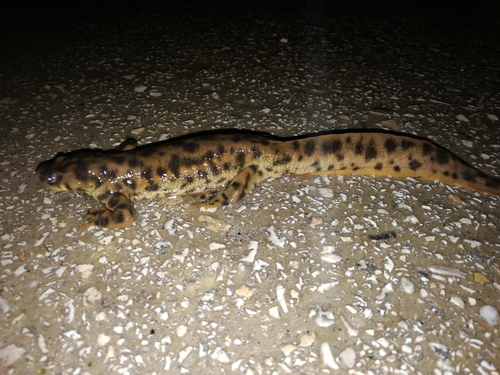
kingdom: Animalia
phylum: Chordata
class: Amphibia
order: Caudata
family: Salamandridae
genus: Pleurodeles
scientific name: Pleurodeles waltl
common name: Iberian ribbed newt
